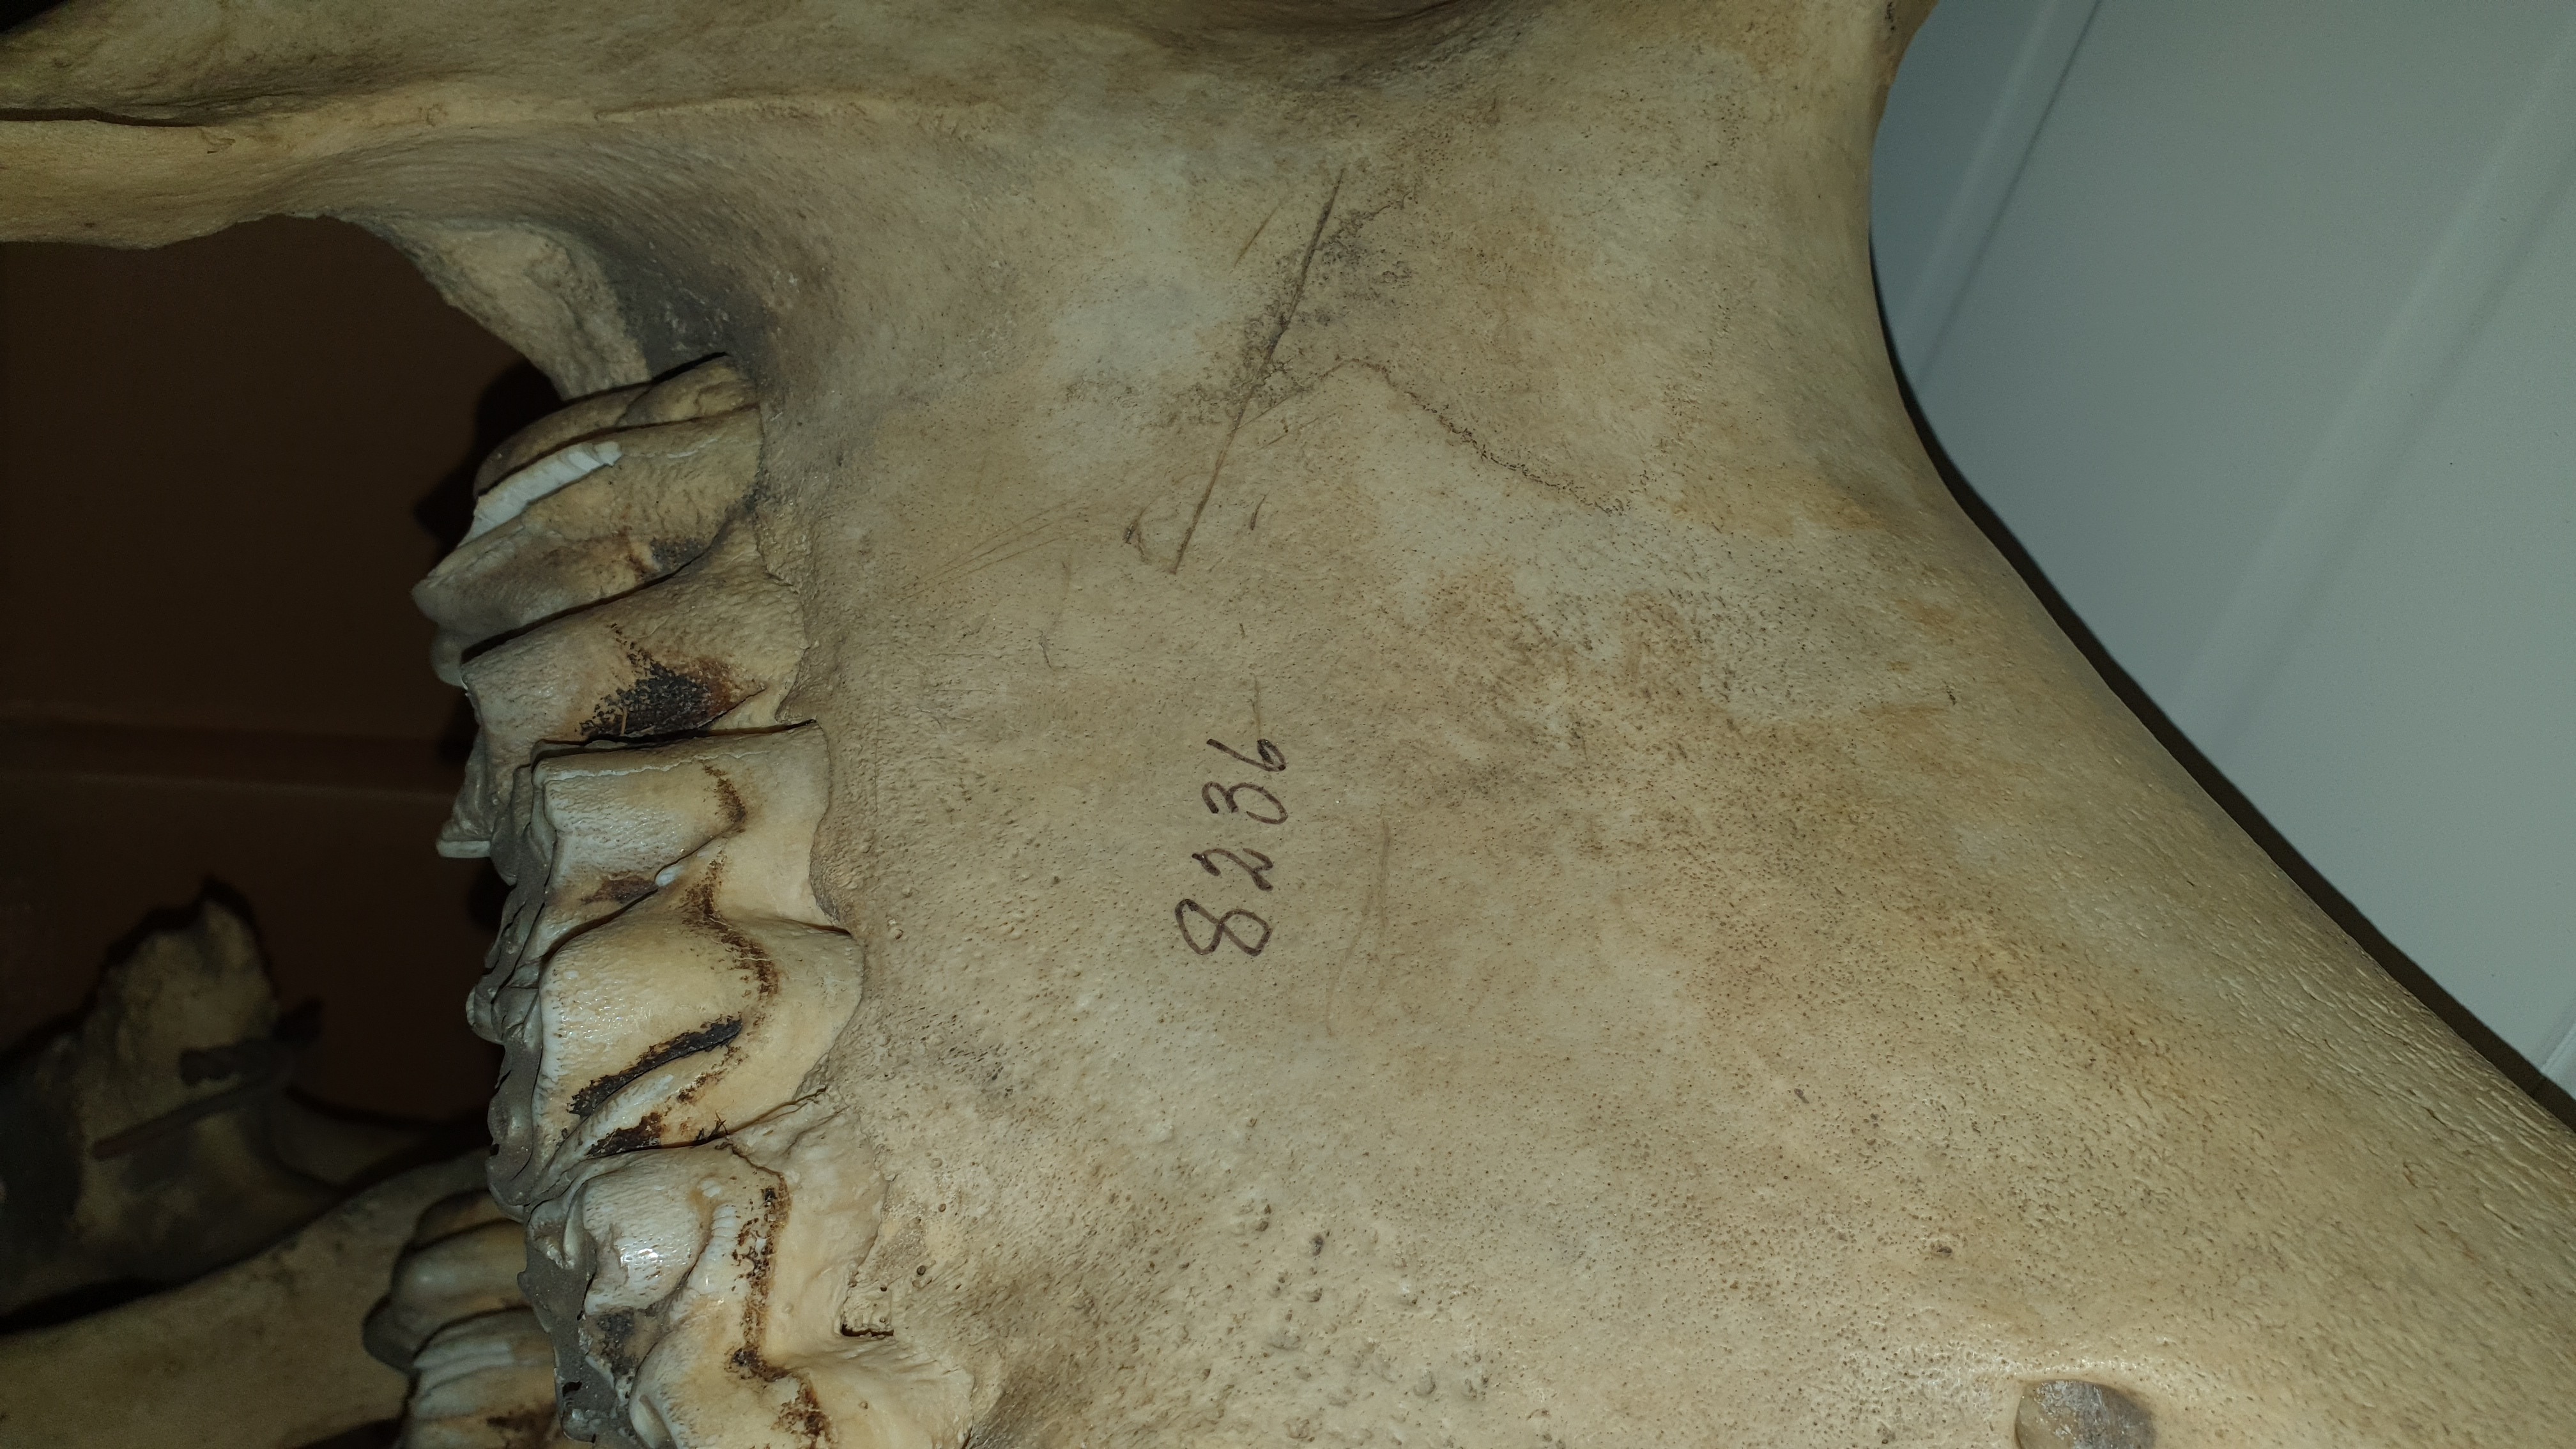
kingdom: Animalia
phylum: Chordata
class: Mammalia
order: Artiodactyla
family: Hippopotamidae
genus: Hippopotamus
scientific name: Hippopotamus amphibius
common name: Common hippopotamus
